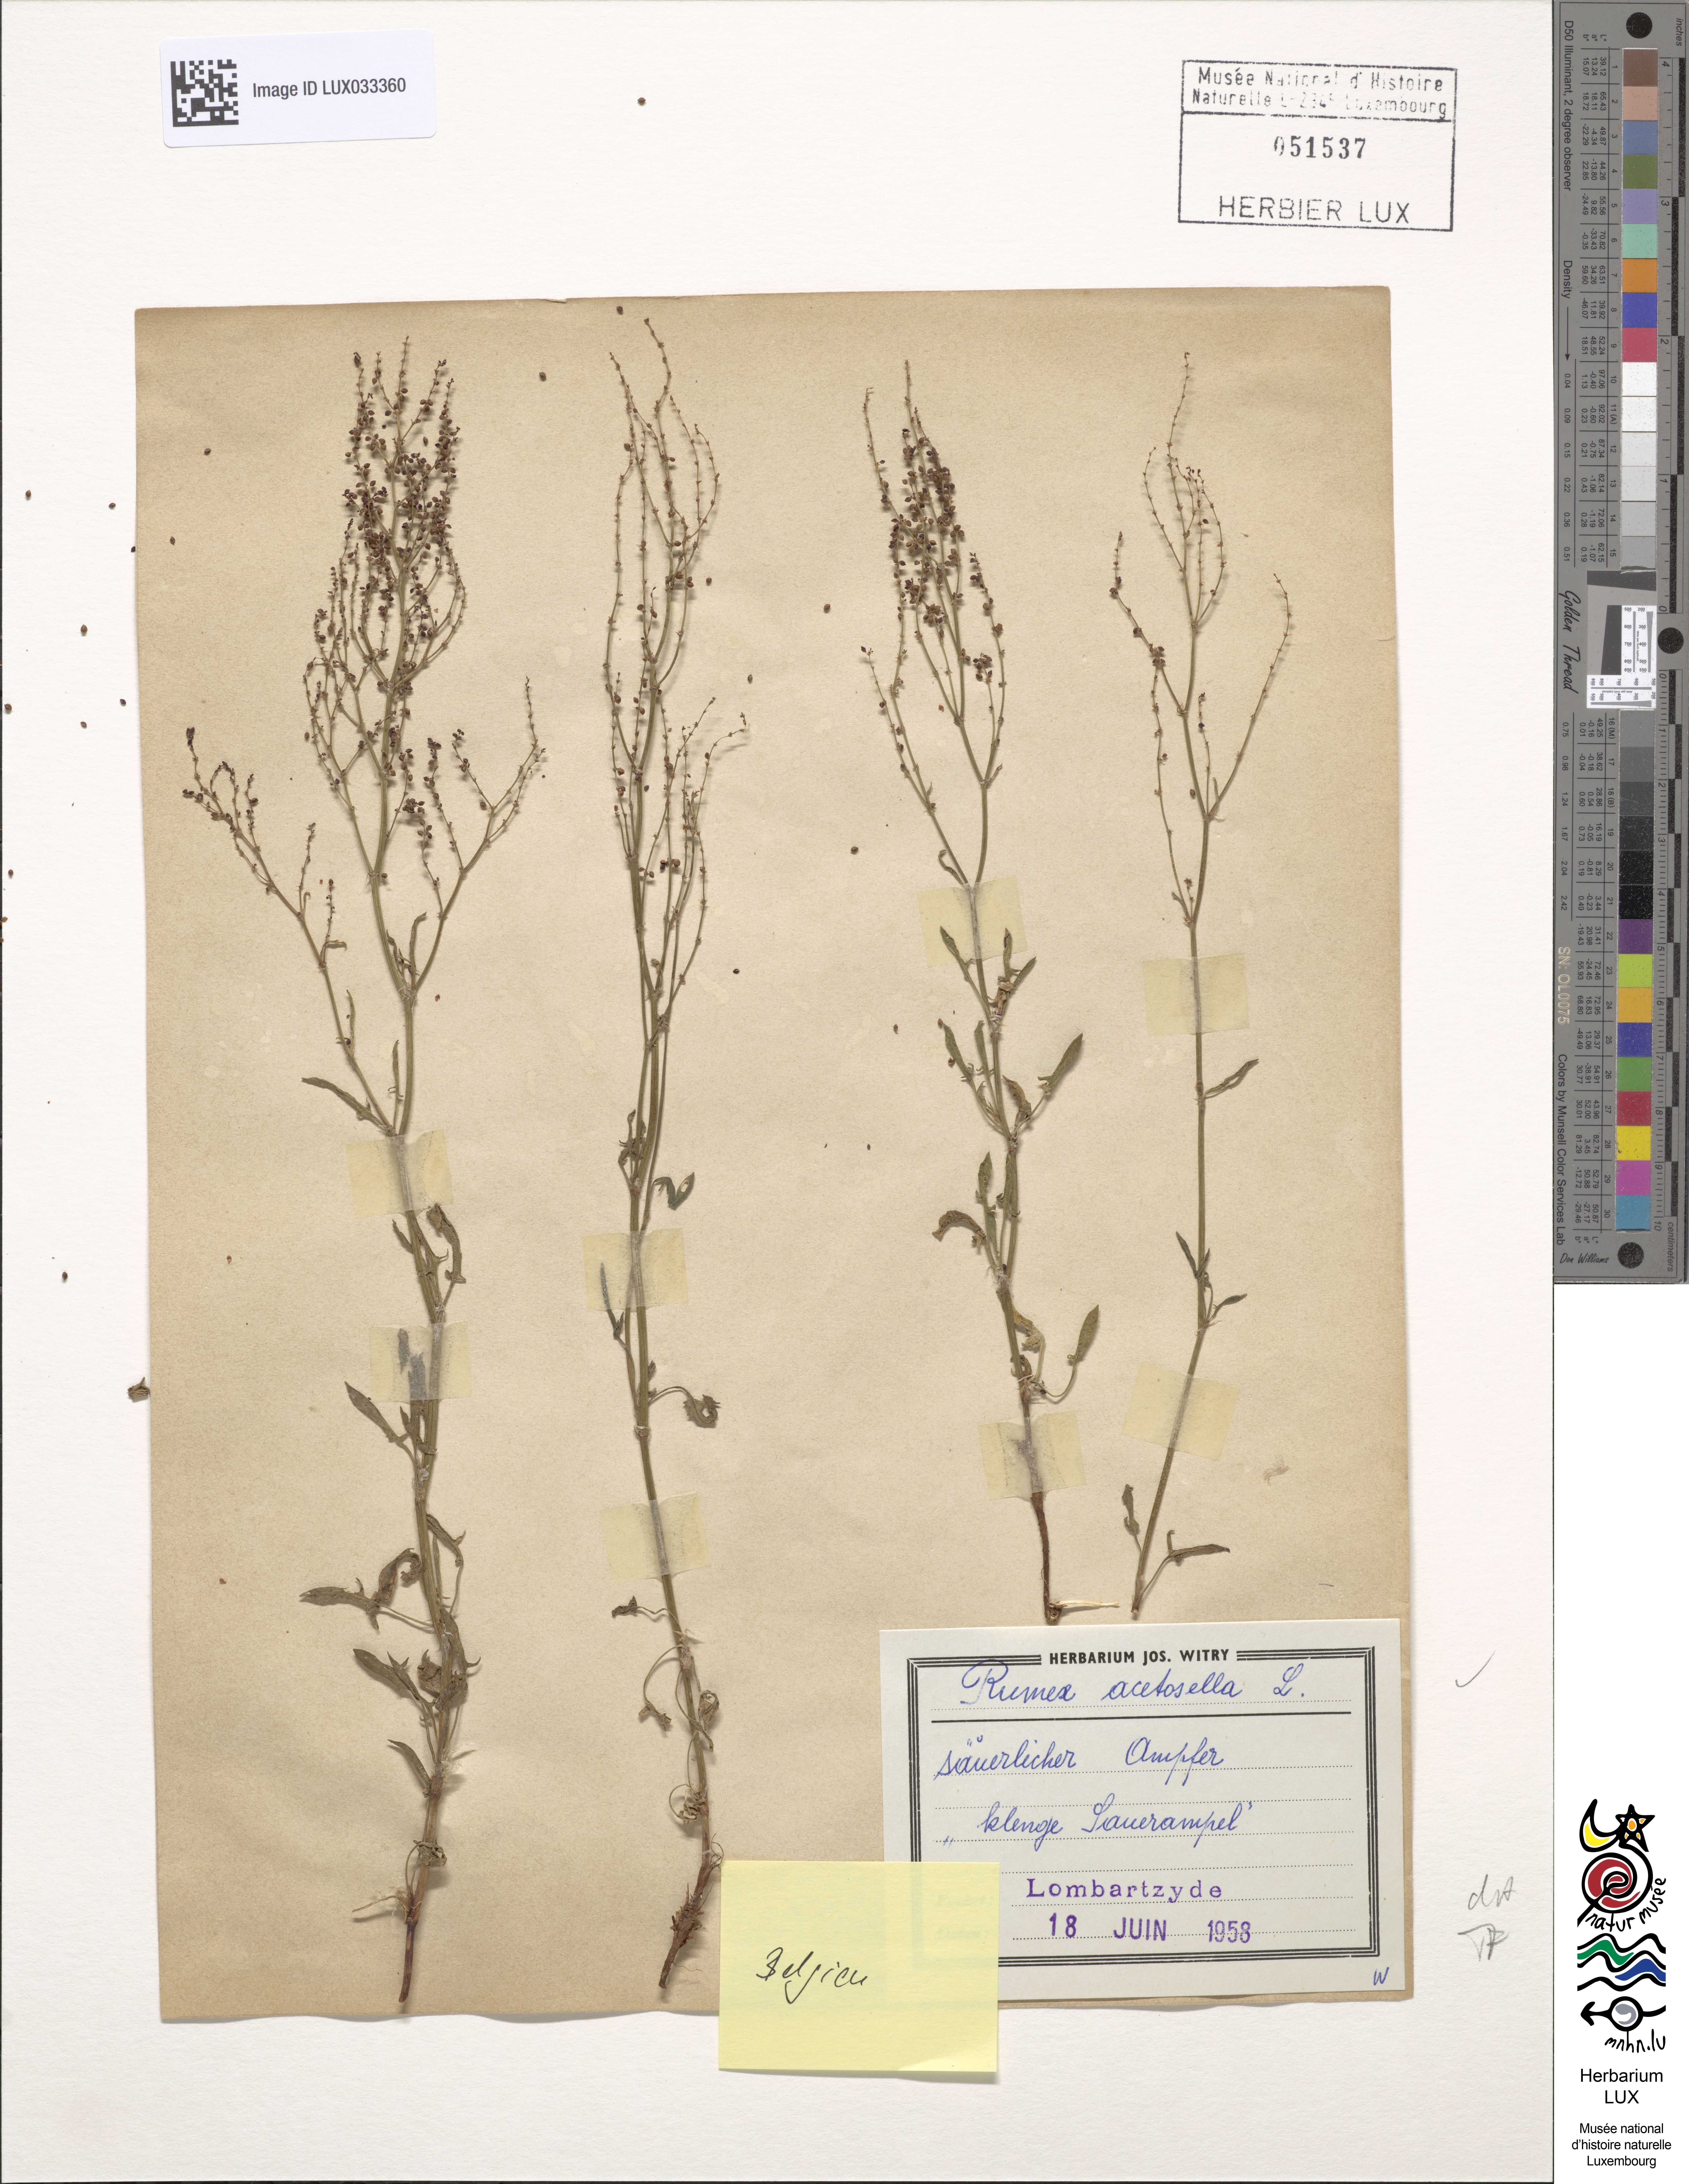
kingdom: Plantae
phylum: Tracheophyta
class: Magnoliopsida
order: Caryophyllales
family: Polygonaceae
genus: Rumex
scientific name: Rumex acetosella
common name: Common sheep sorrel
